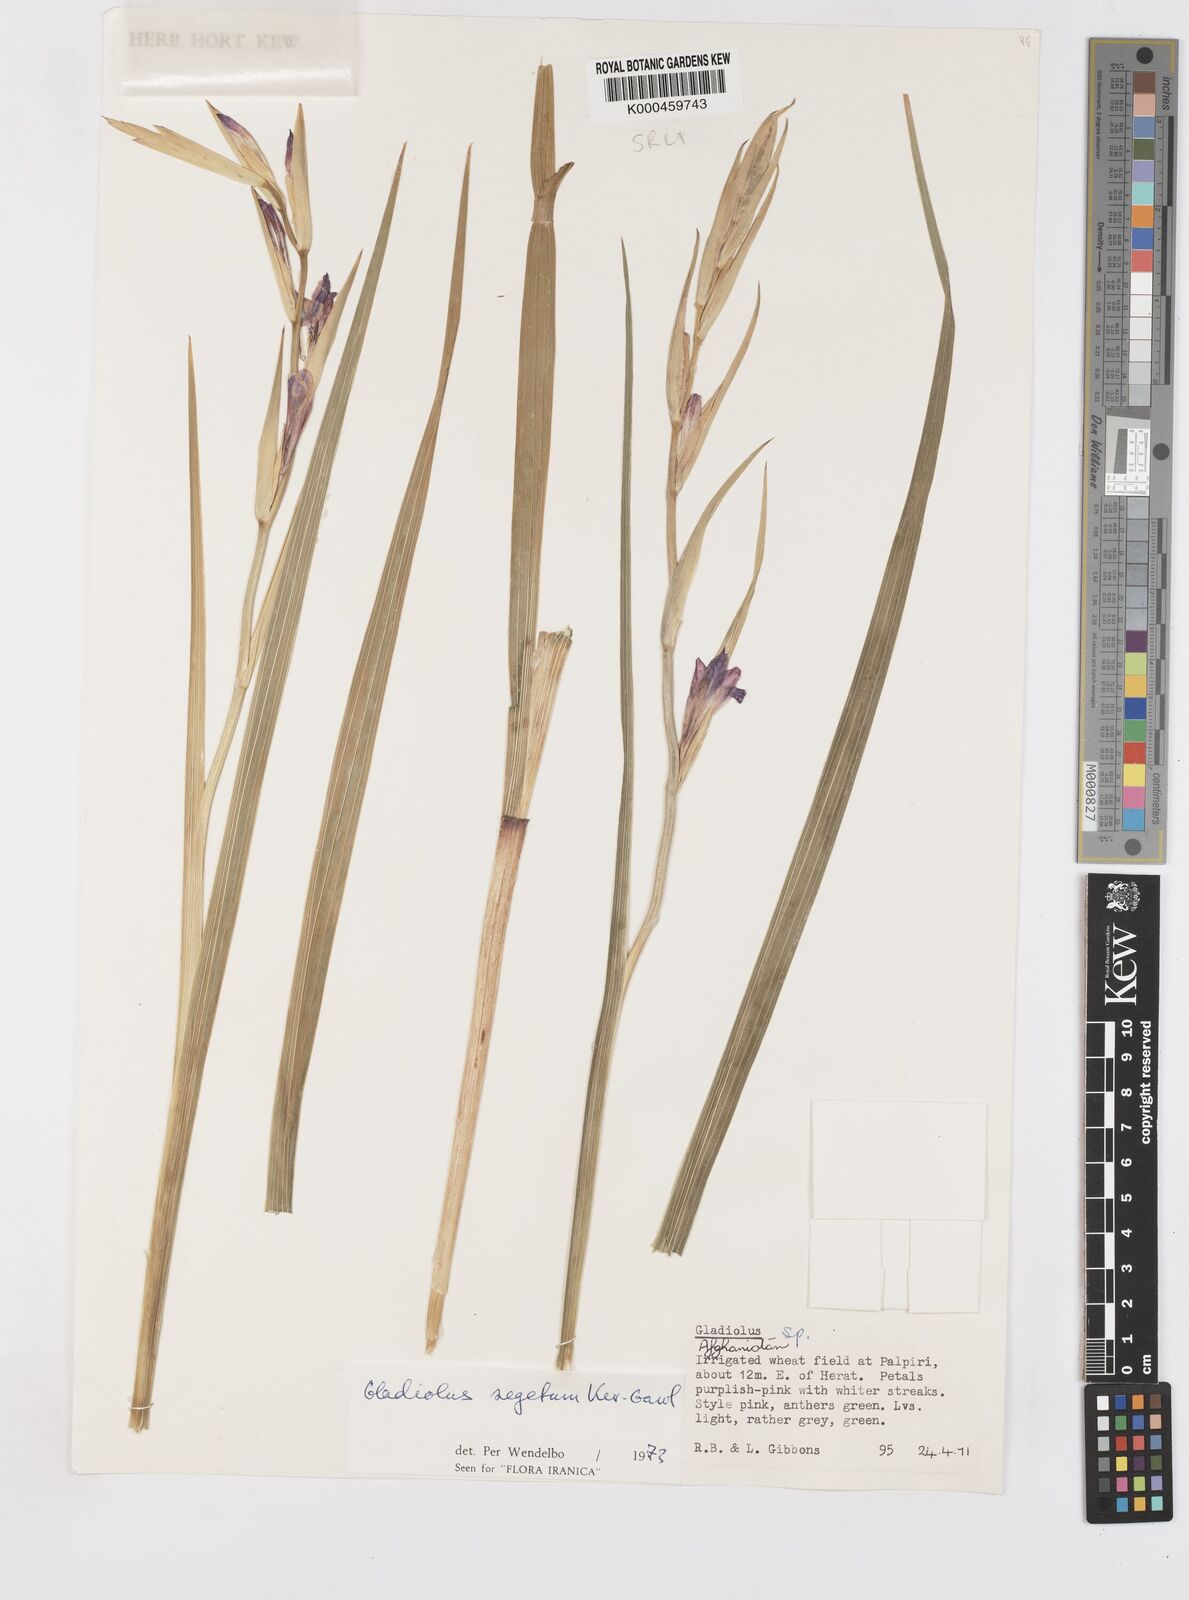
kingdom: Plantae
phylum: Tracheophyta
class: Liliopsida
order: Asparagales
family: Iridaceae
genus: Gladiolus
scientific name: Gladiolus italicus
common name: Field gladiolus
